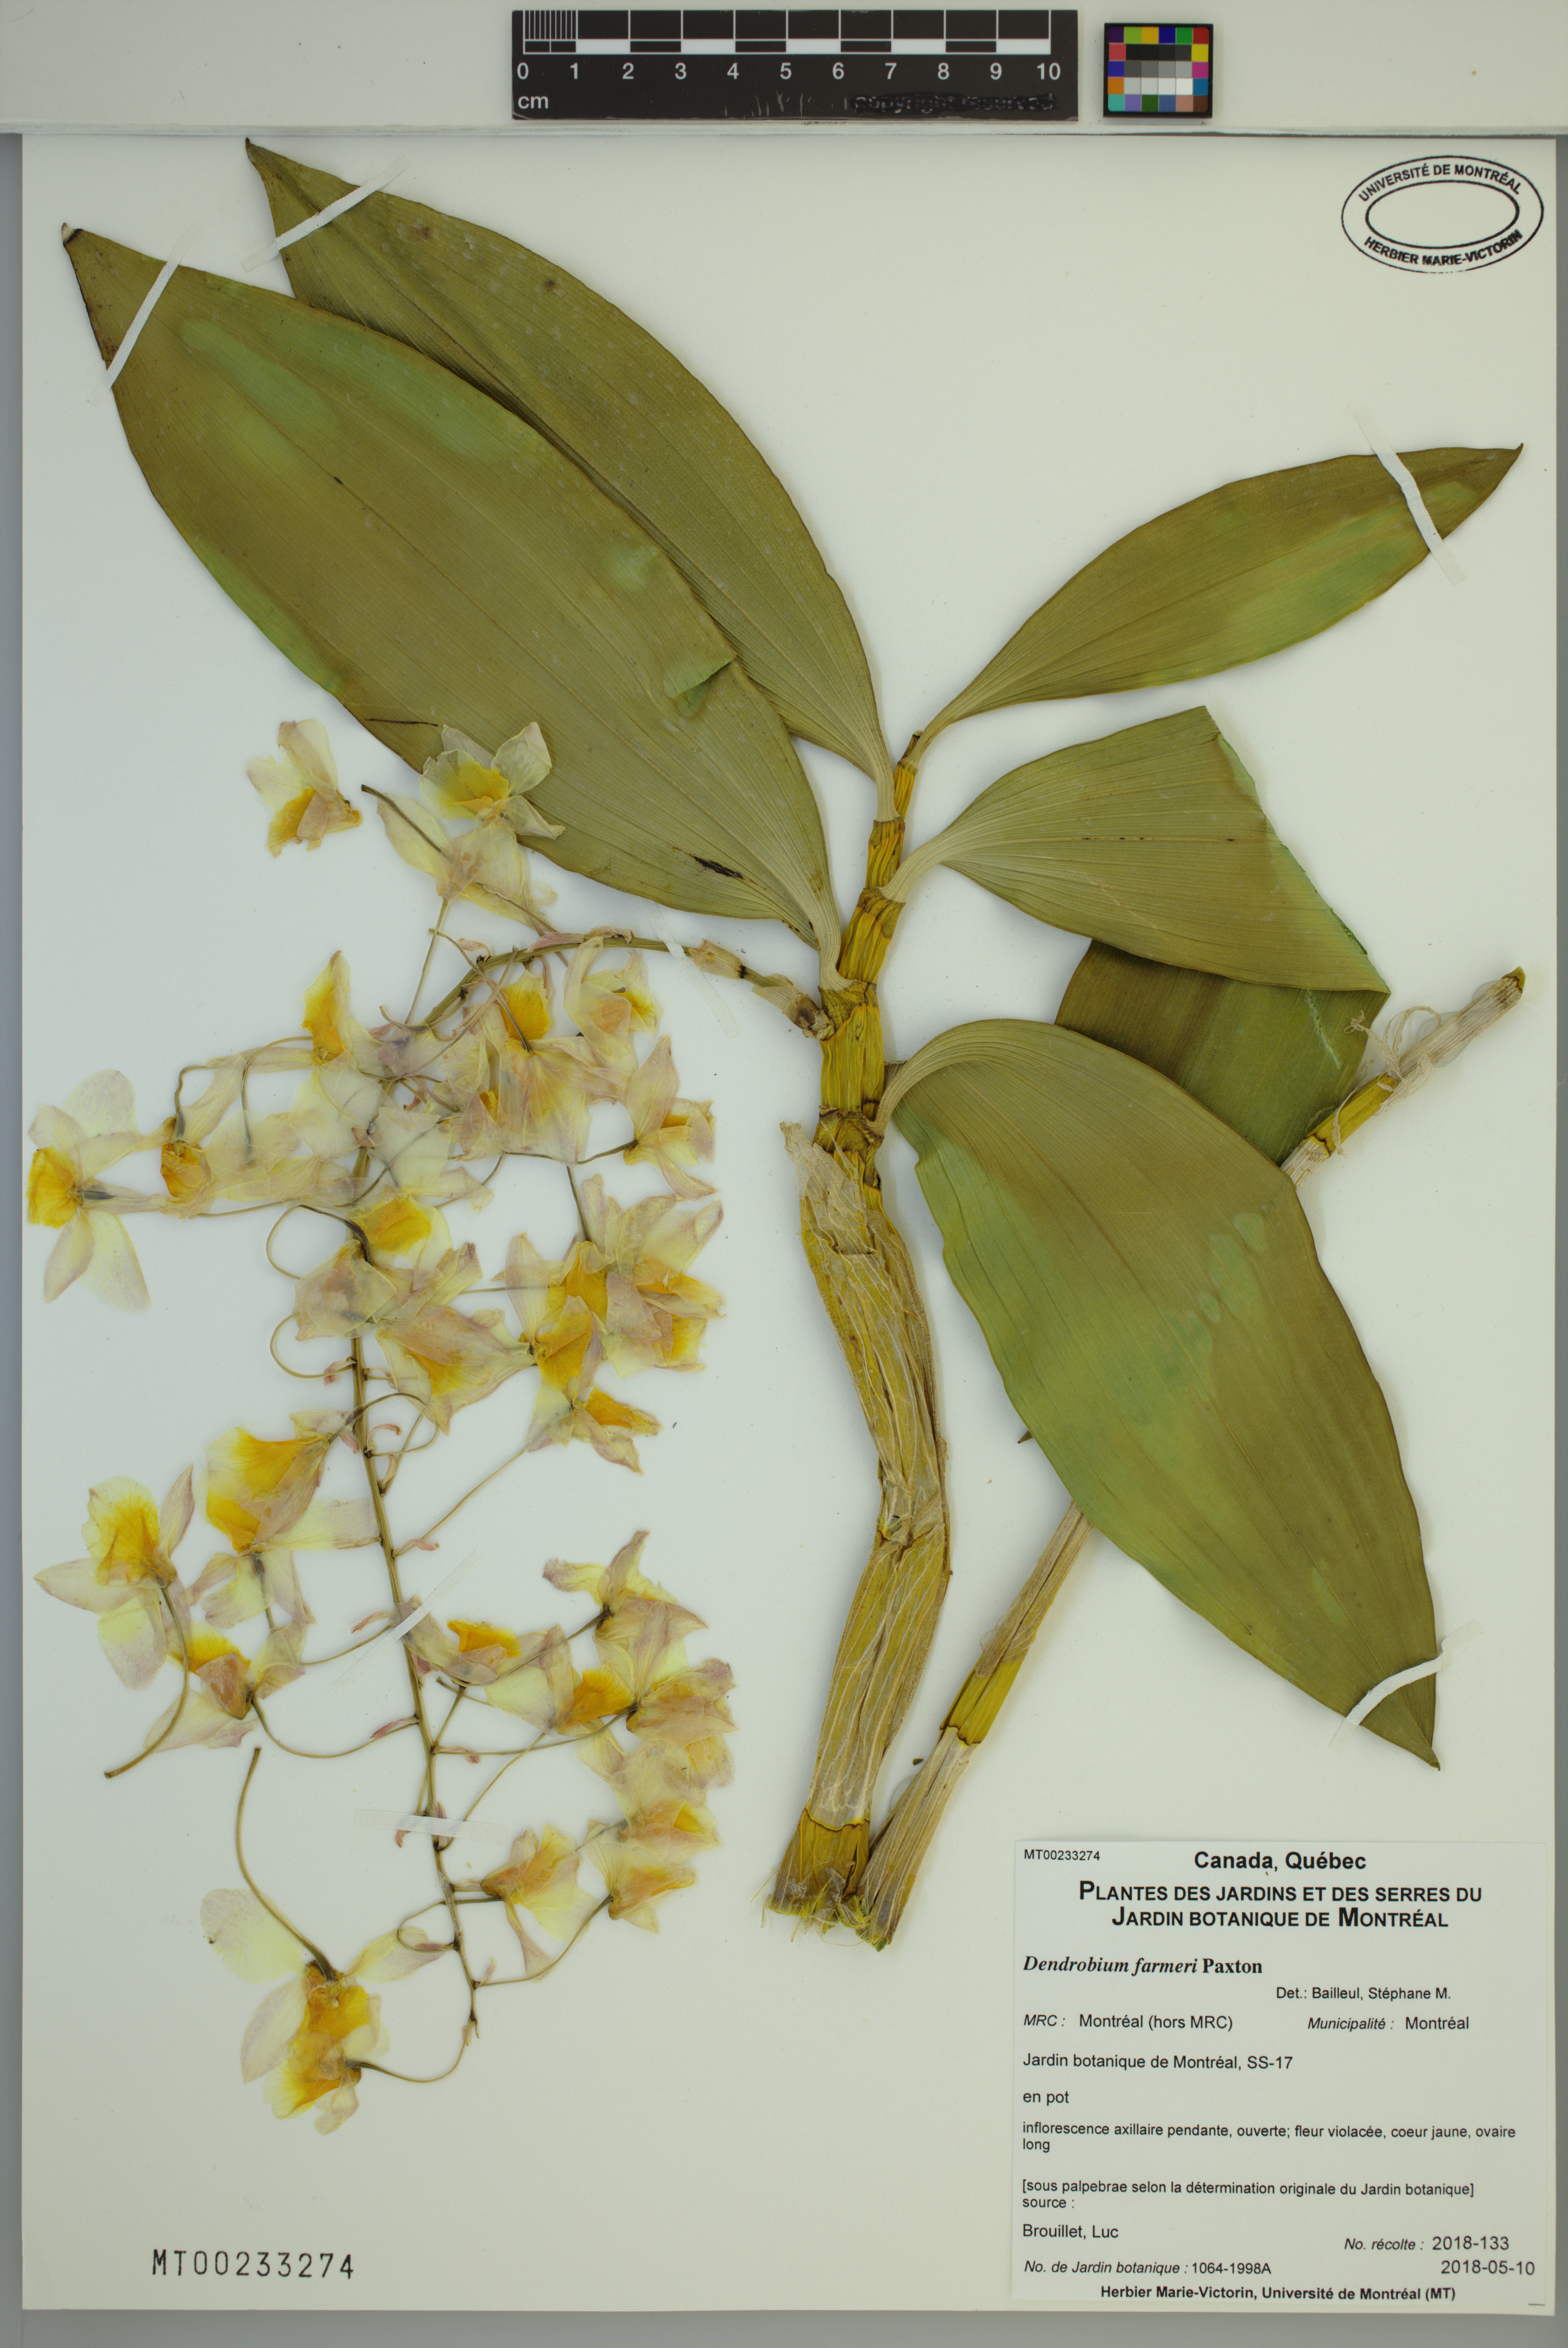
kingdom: Plantae
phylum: Tracheophyta
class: Liliopsida
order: Asparagales
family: Orchidaceae
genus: Dendrobium
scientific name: Dendrobium farmeri
